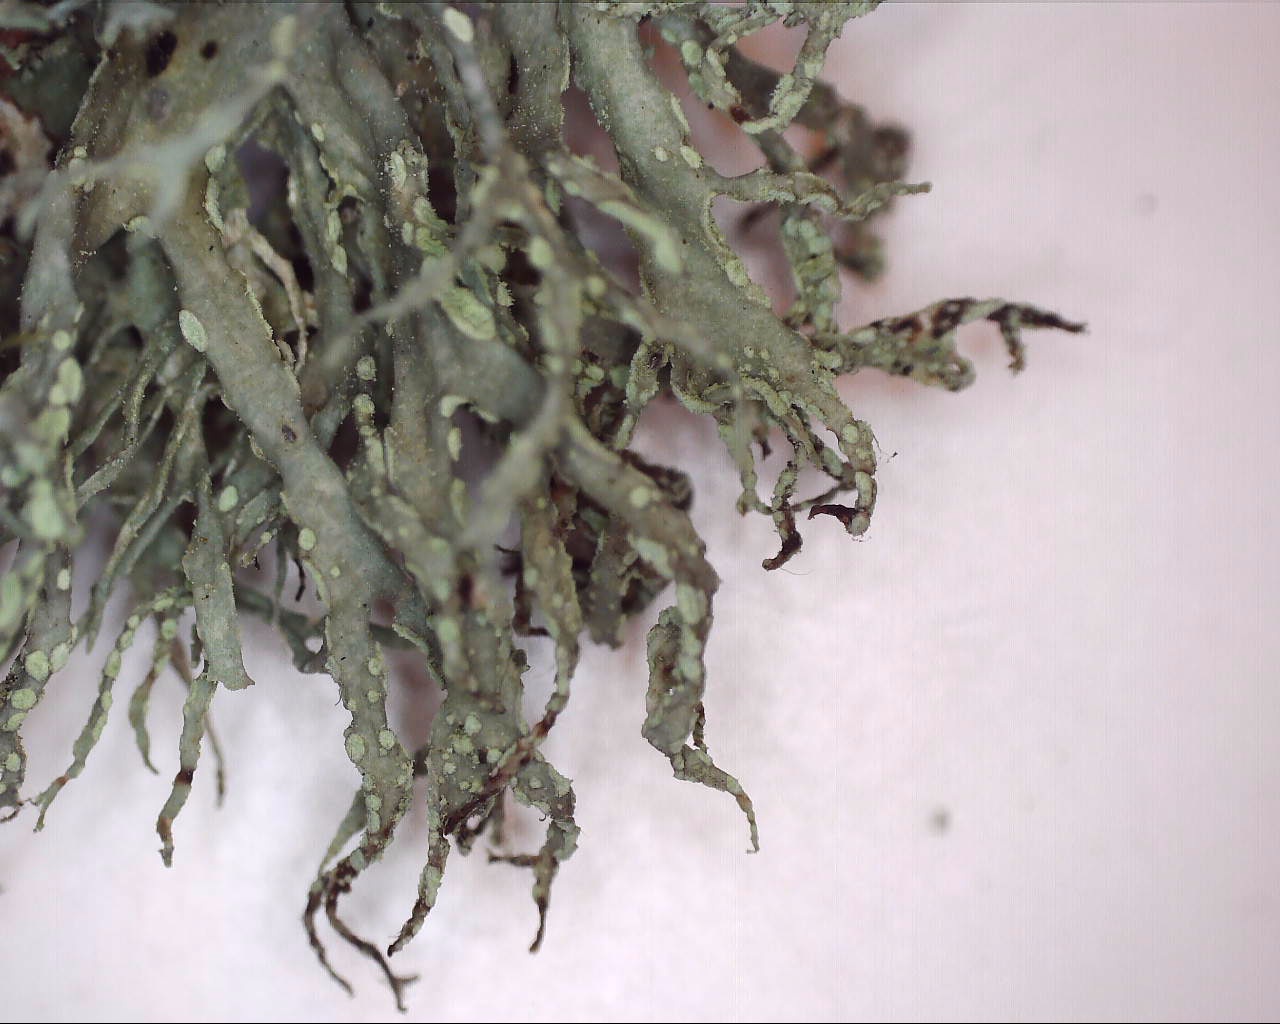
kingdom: Fungi
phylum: Ascomycota
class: Lecanoromycetes
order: Lecanorales
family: Ramalinaceae
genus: Ramalina
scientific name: Ramalina farinacea
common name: melet grenlav
